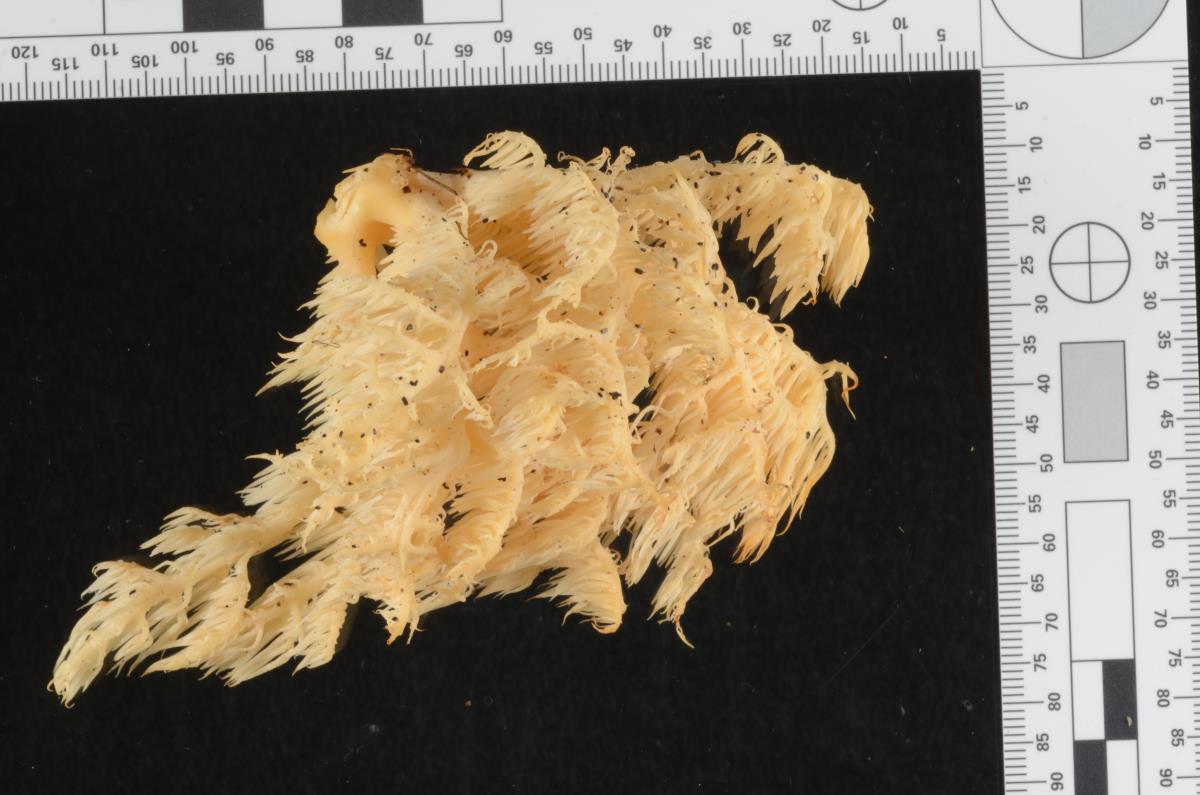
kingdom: Fungi
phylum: Basidiomycota
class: Agaricomycetes
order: Russulales
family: Hericiaceae
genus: Hericium
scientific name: Hericium novae-zealandiae
